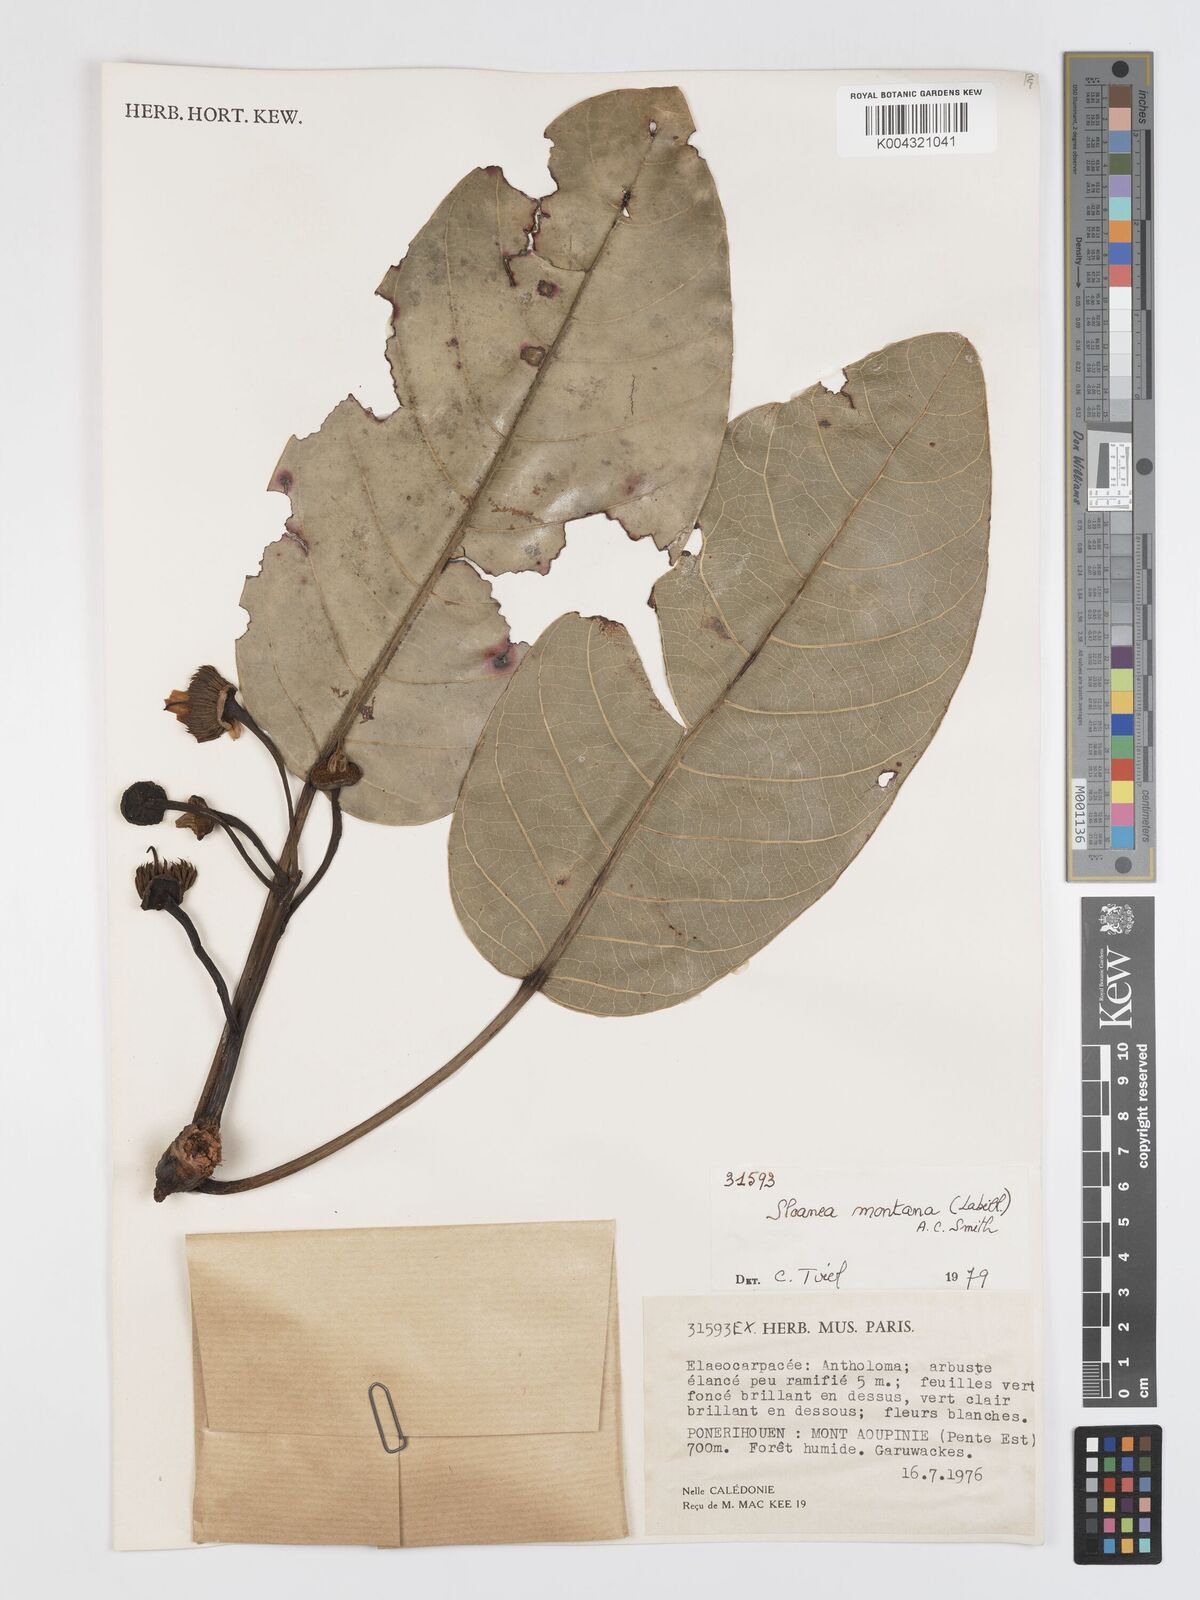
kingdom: Plantae
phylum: Tracheophyta
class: Magnoliopsida
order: Oxalidales
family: Elaeocarpaceae
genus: Sloanea
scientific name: Sloanea montana
